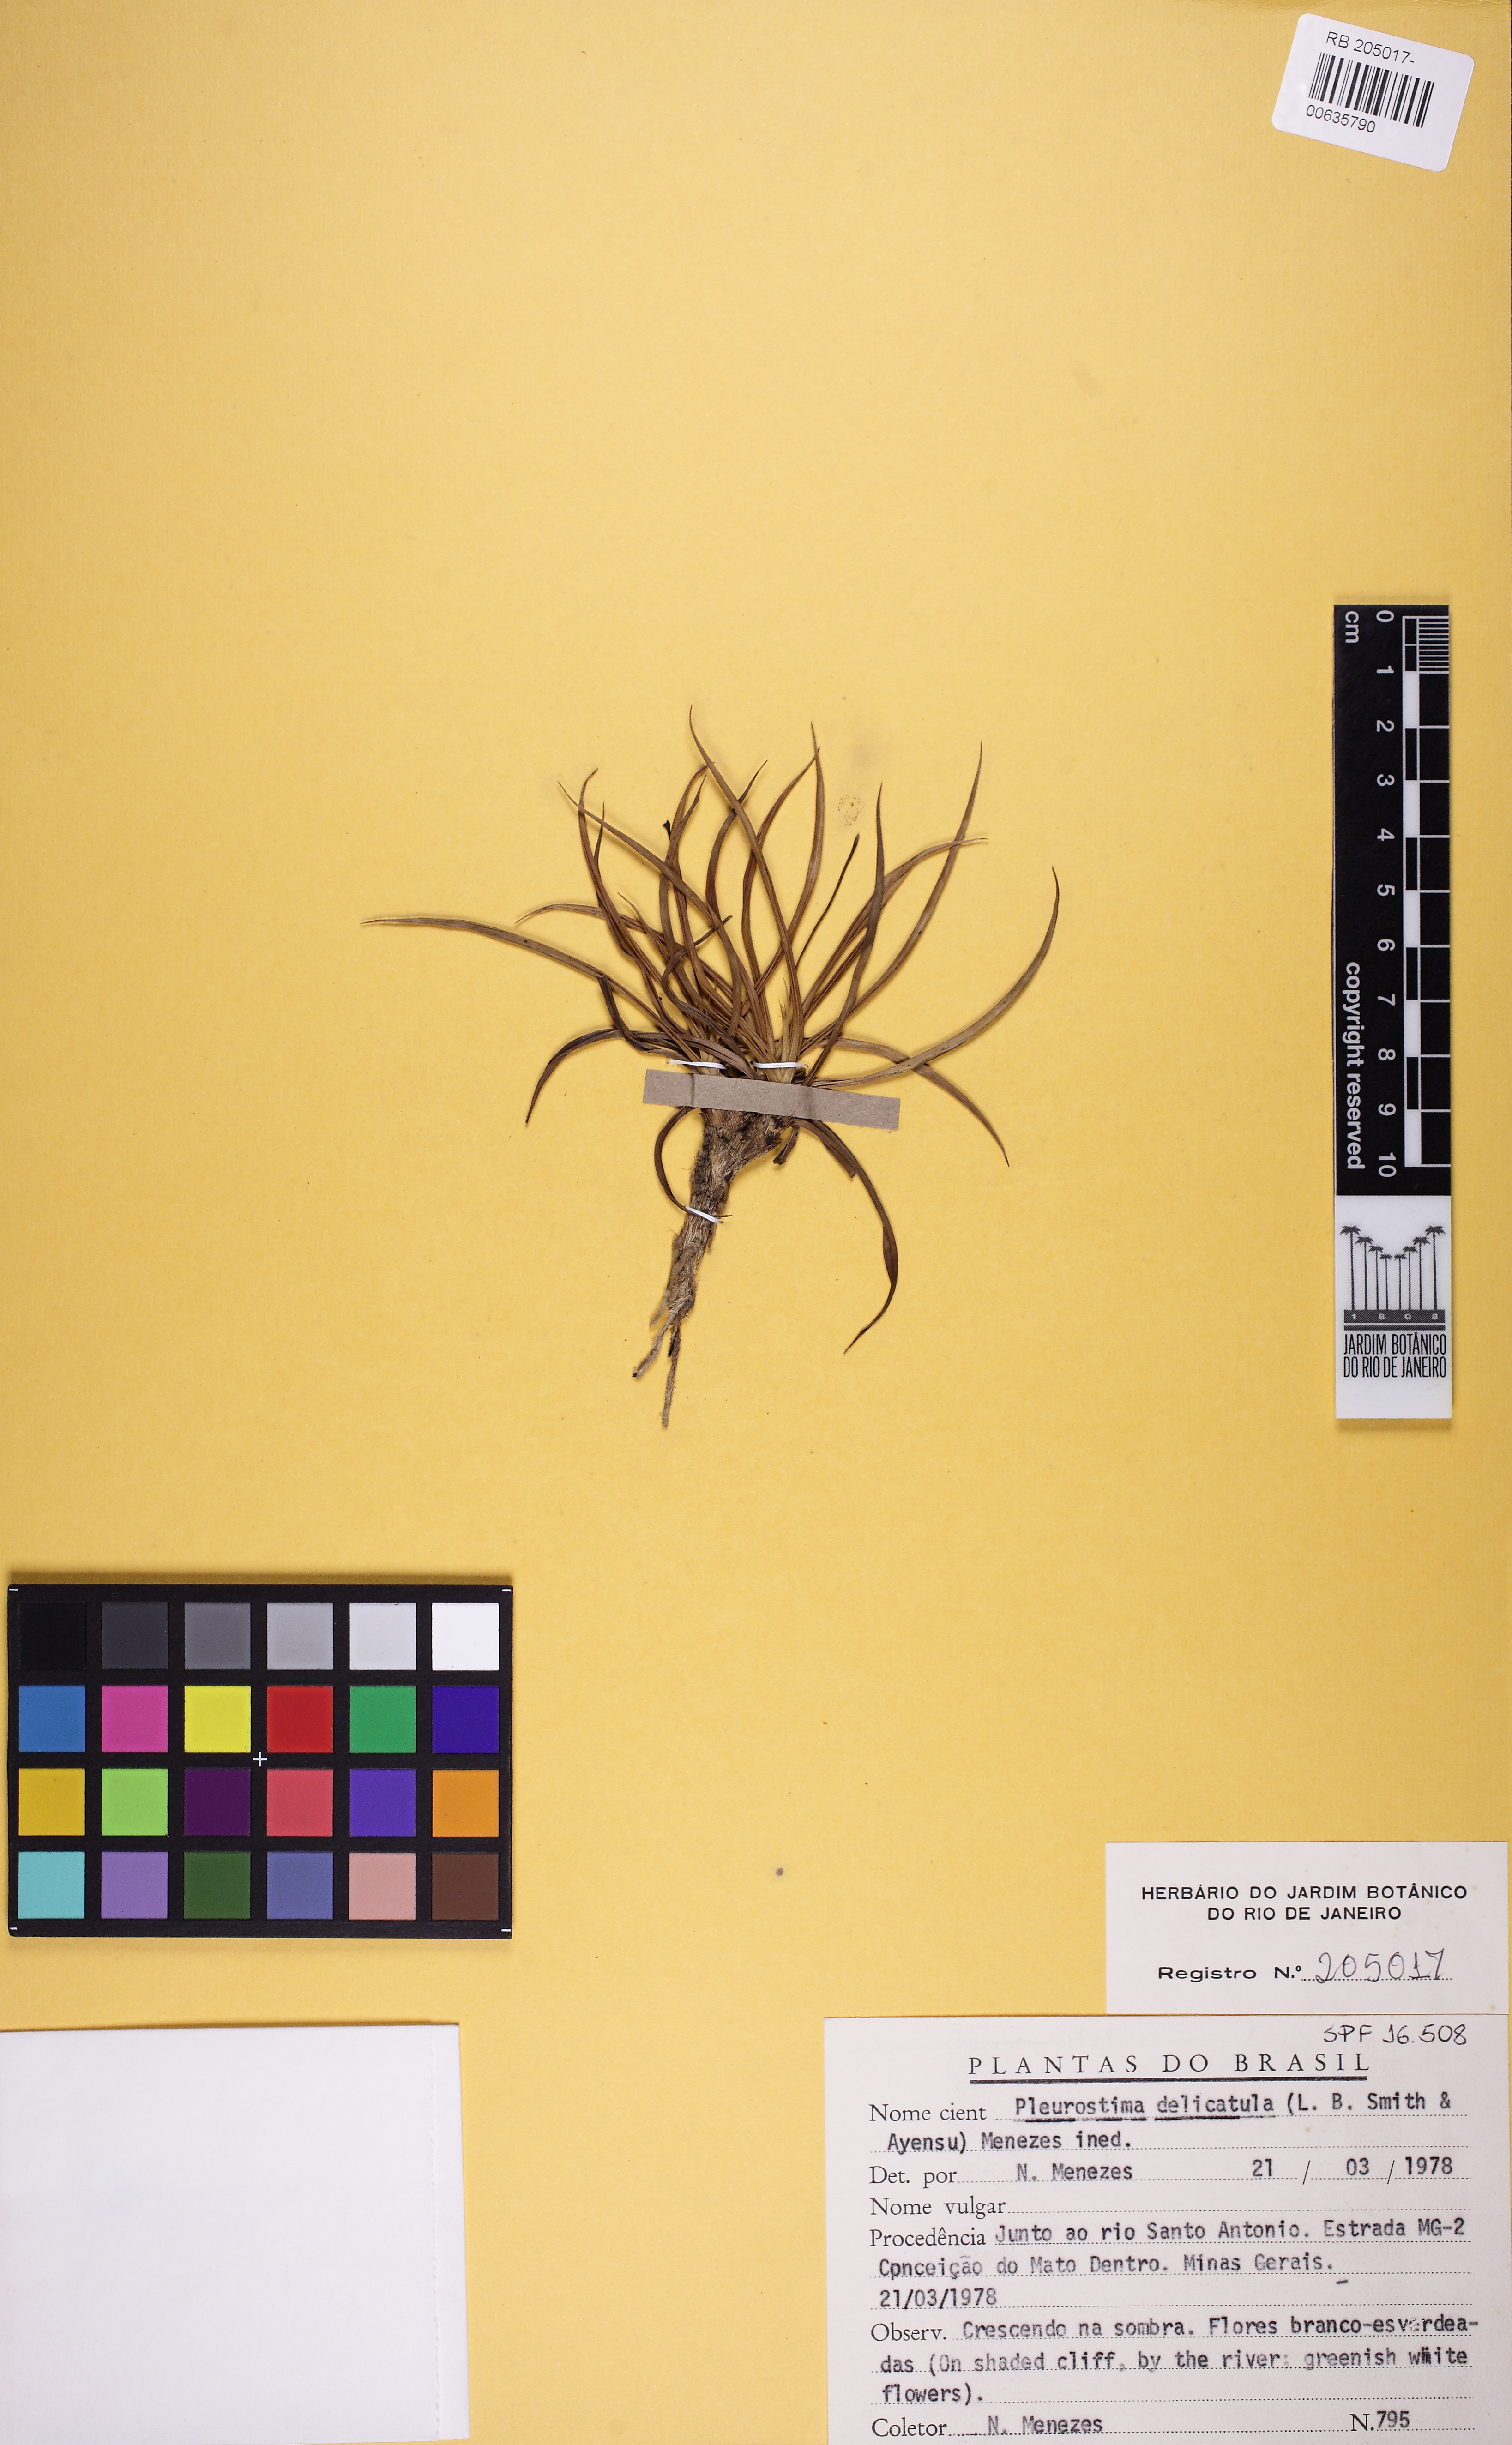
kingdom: Plantae
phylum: Tracheophyta
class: Liliopsida
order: Pandanales
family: Velloziaceae
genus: Barbacenia
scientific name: Barbacenia delicatula
